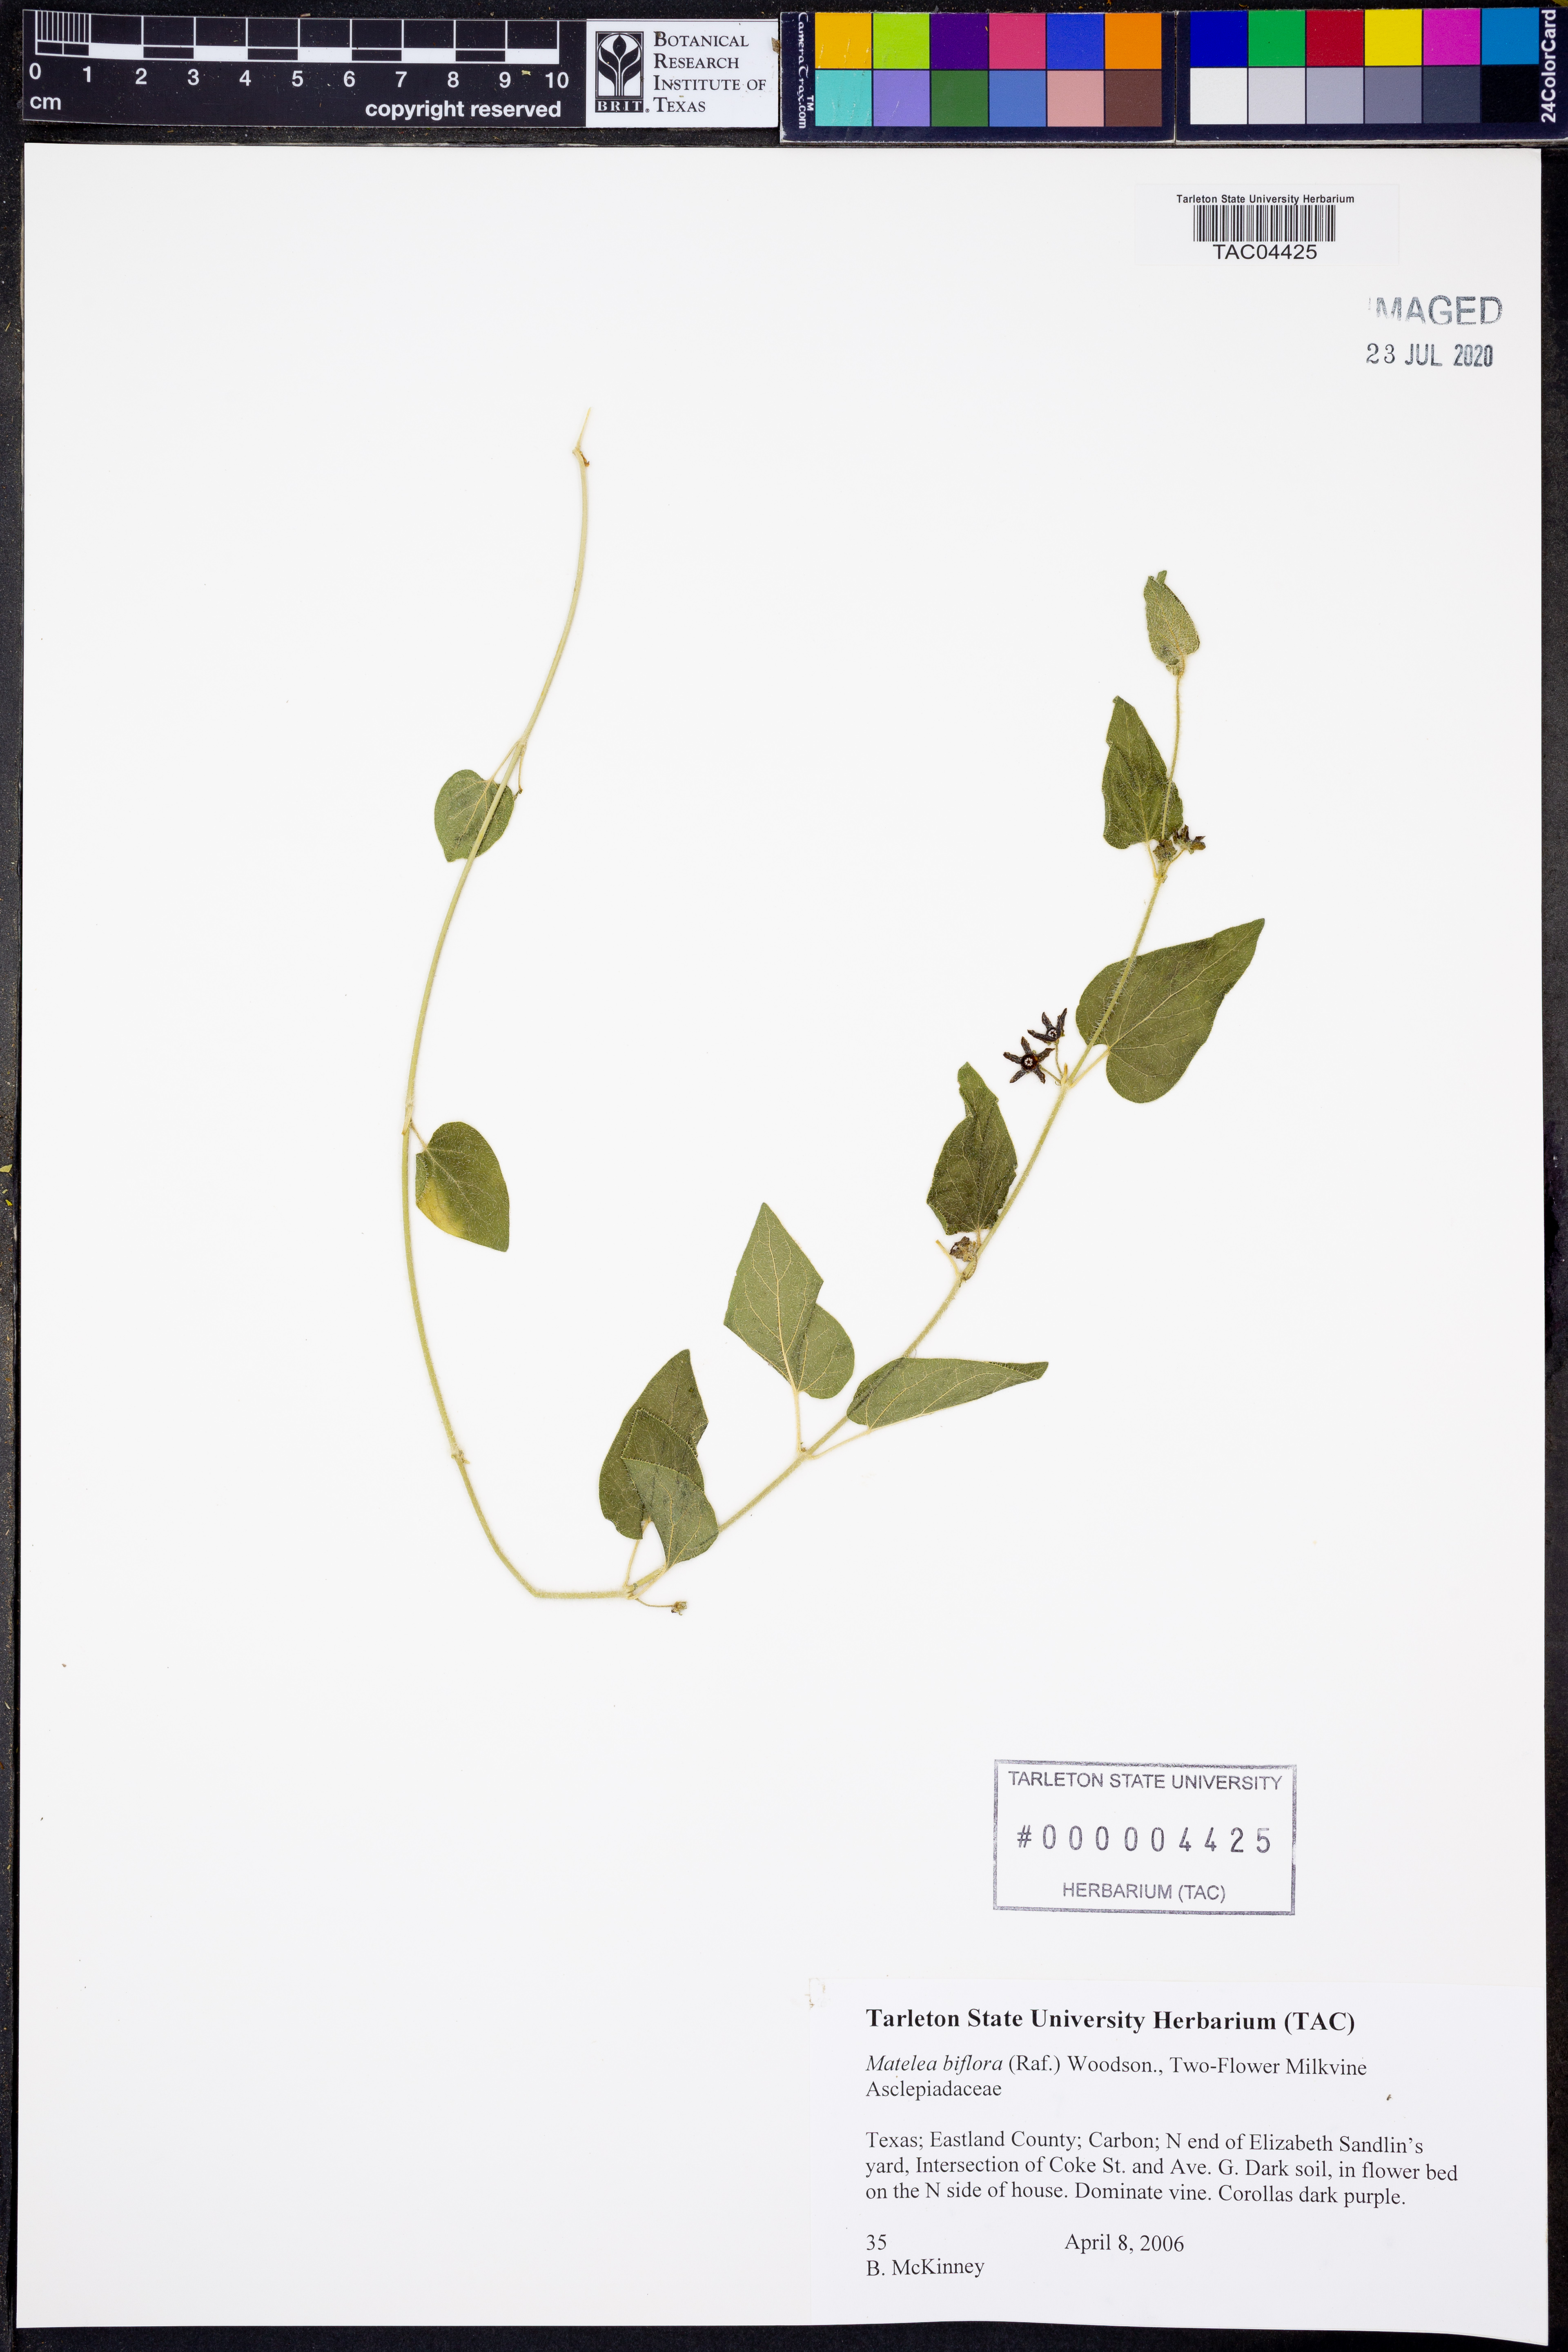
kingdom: Plantae
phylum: Tracheophyta
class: Magnoliopsida
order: Gentianales
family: Apocynaceae
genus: Chthamalia
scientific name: Chthamalia biflora
